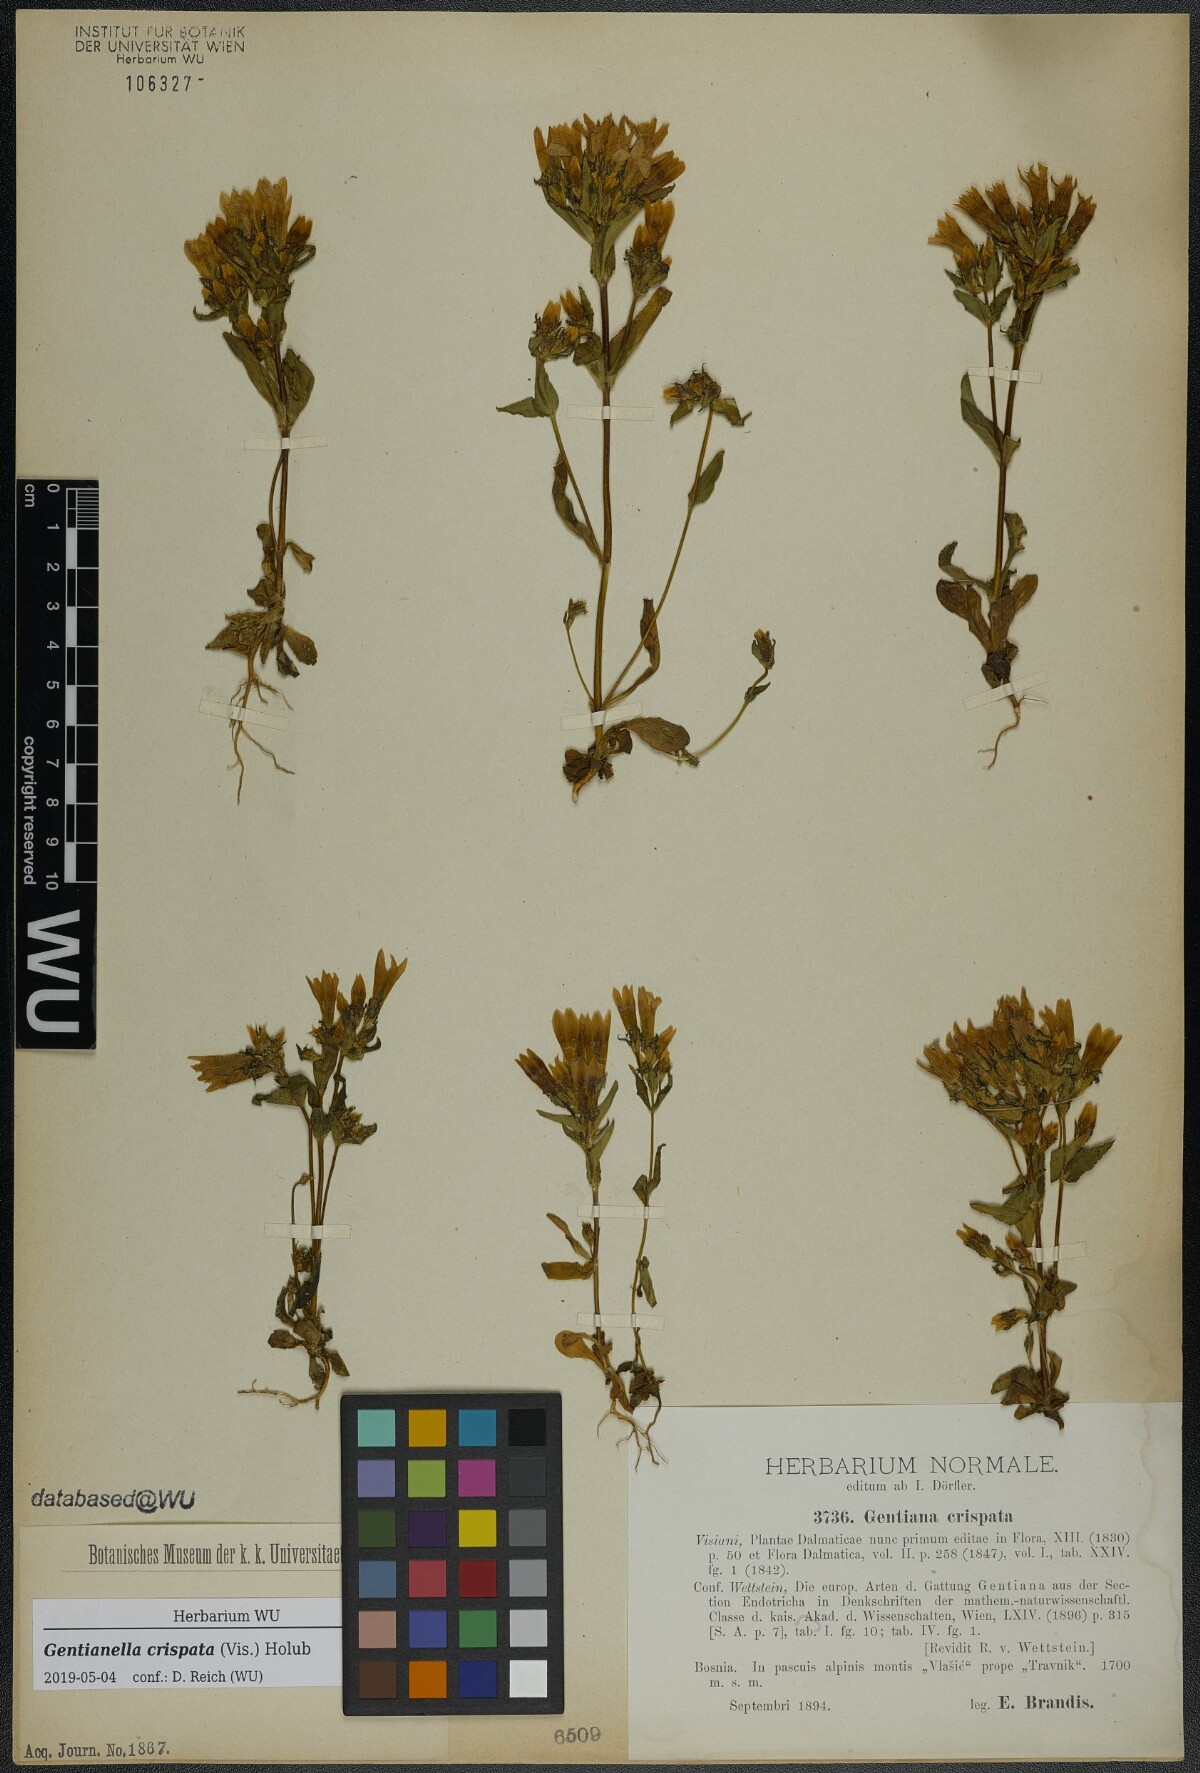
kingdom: Plantae
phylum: Tracheophyta
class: Magnoliopsida
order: Gentianales
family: Gentianaceae
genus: Gentianella
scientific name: Gentianella crispata
